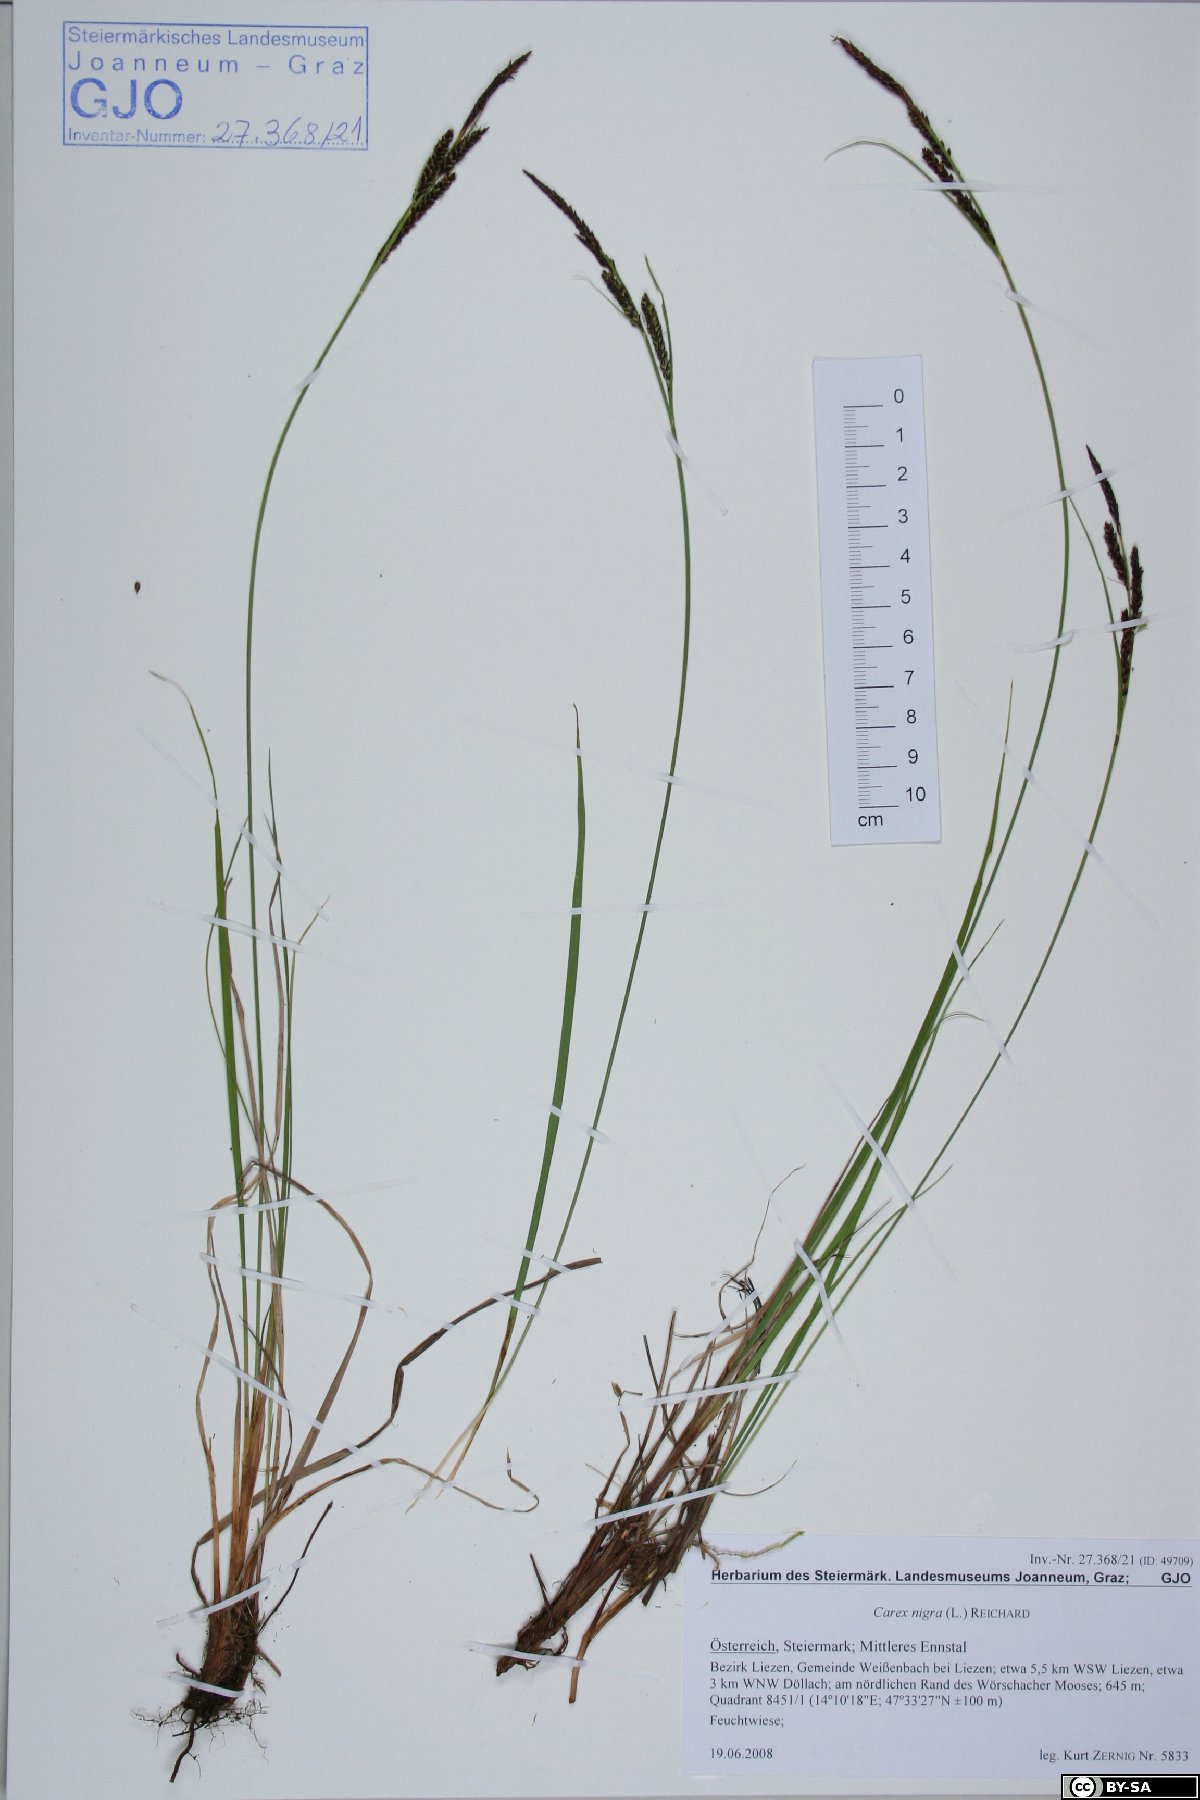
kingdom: Plantae
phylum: Tracheophyta
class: Liliopsida
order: Poales
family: Cyperaceae
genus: Carex
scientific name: Carex nigra
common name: Common sedge
